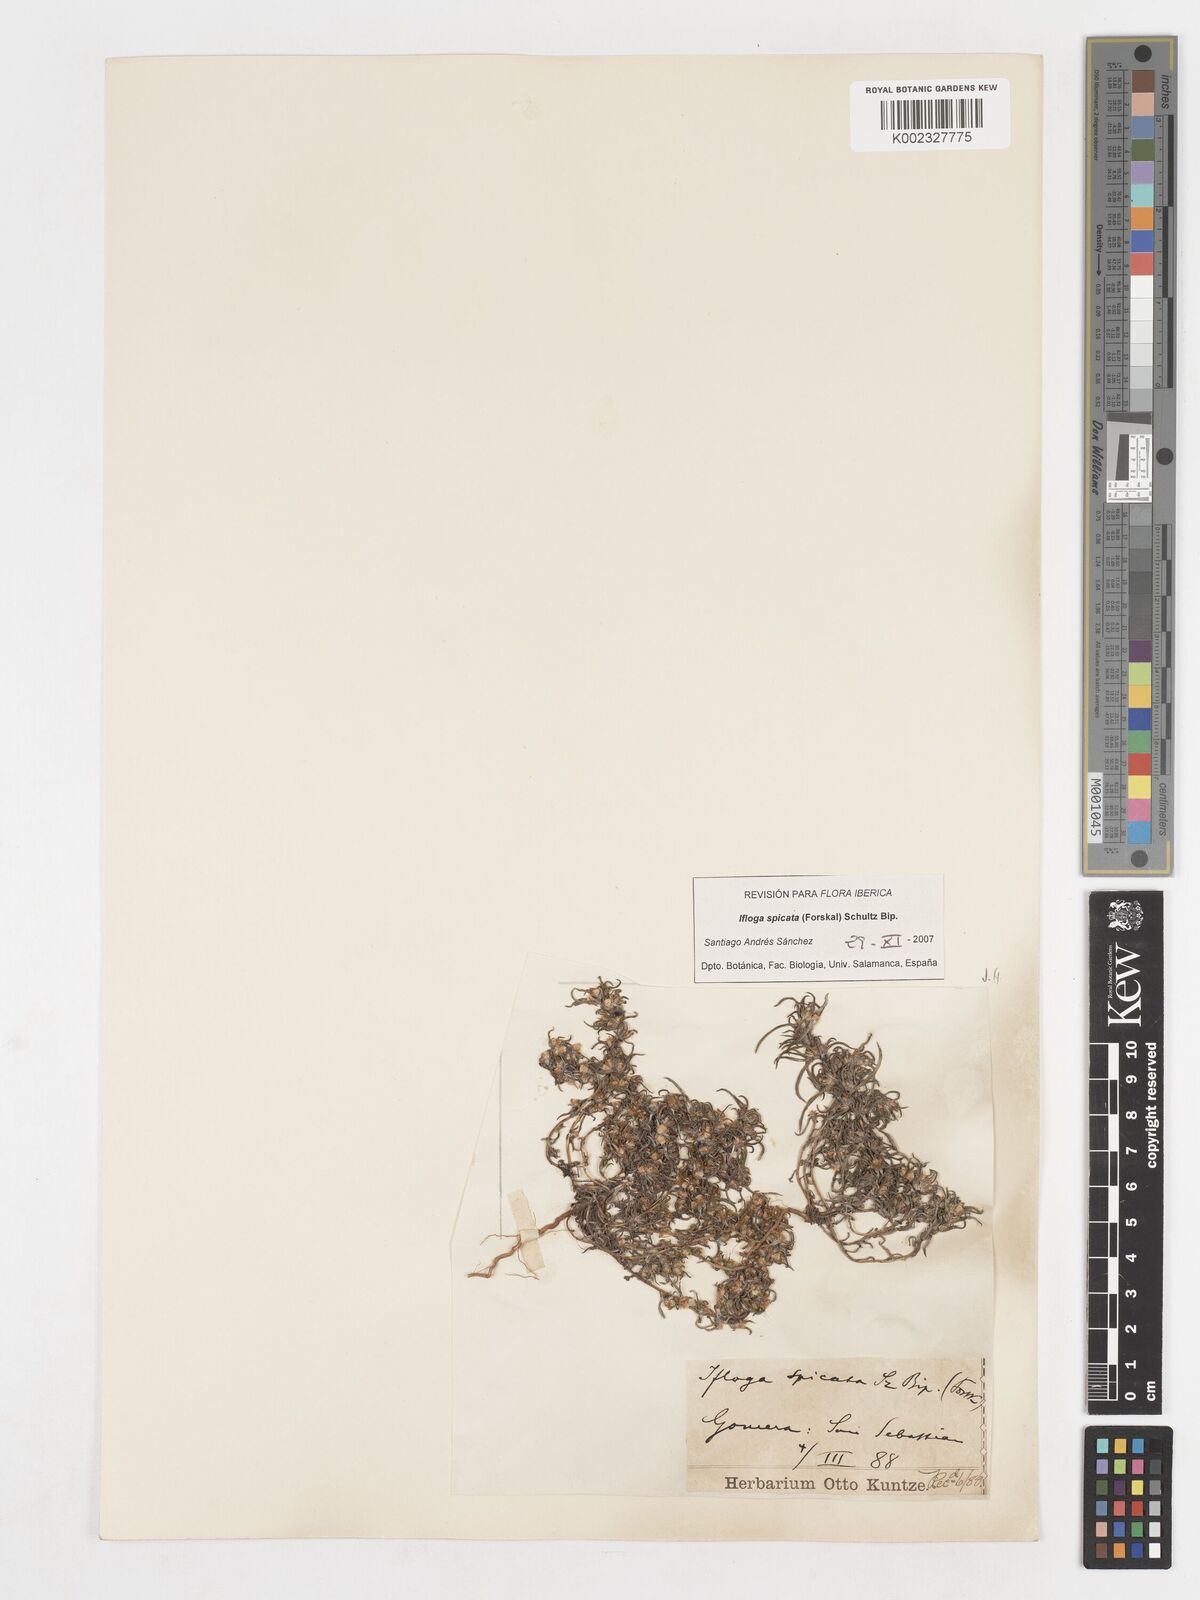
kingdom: Plantae
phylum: Tracheophyta
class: Magnoliopsida
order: Asterales
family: Asteraceae
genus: Ifloga
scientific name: Ifloga spicata
